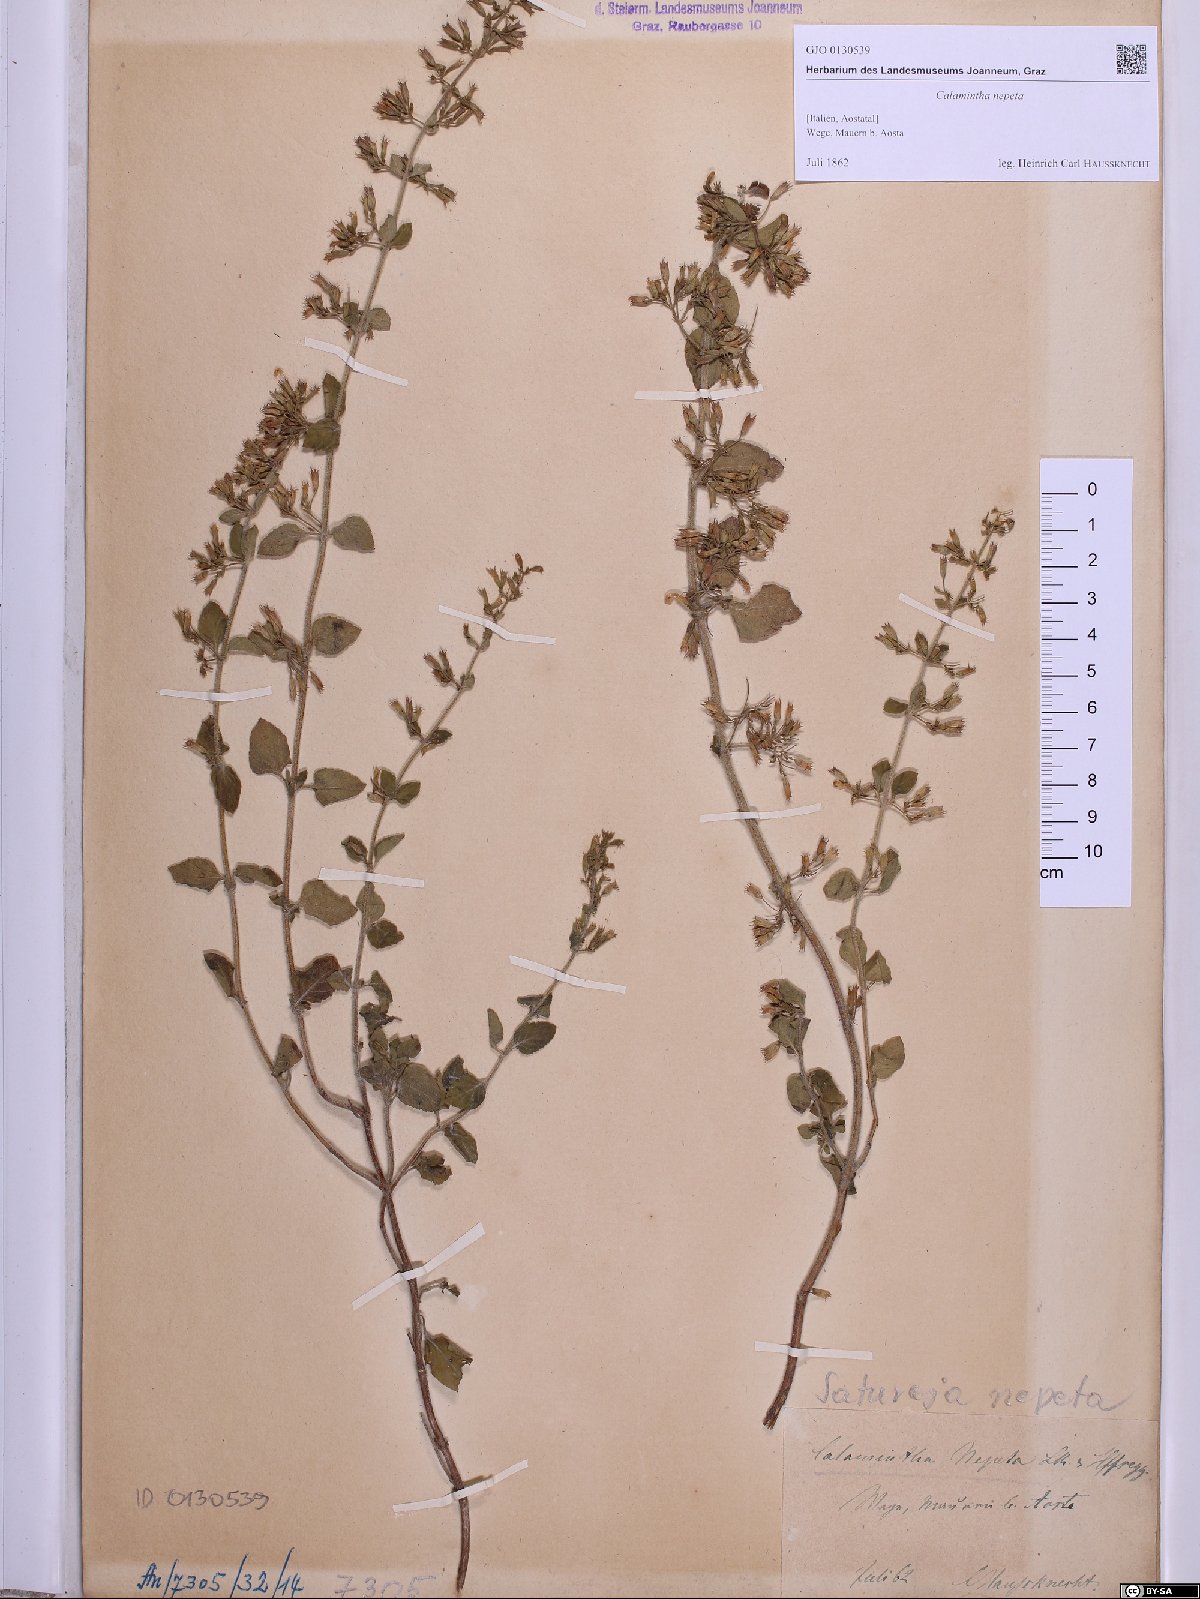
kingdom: Plantae
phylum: Tracheophyta
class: Magnoliopsida
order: Lamiales
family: Lamiaceae
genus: Clinopodium
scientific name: Clinopodium nepeta
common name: Lesser calamint
